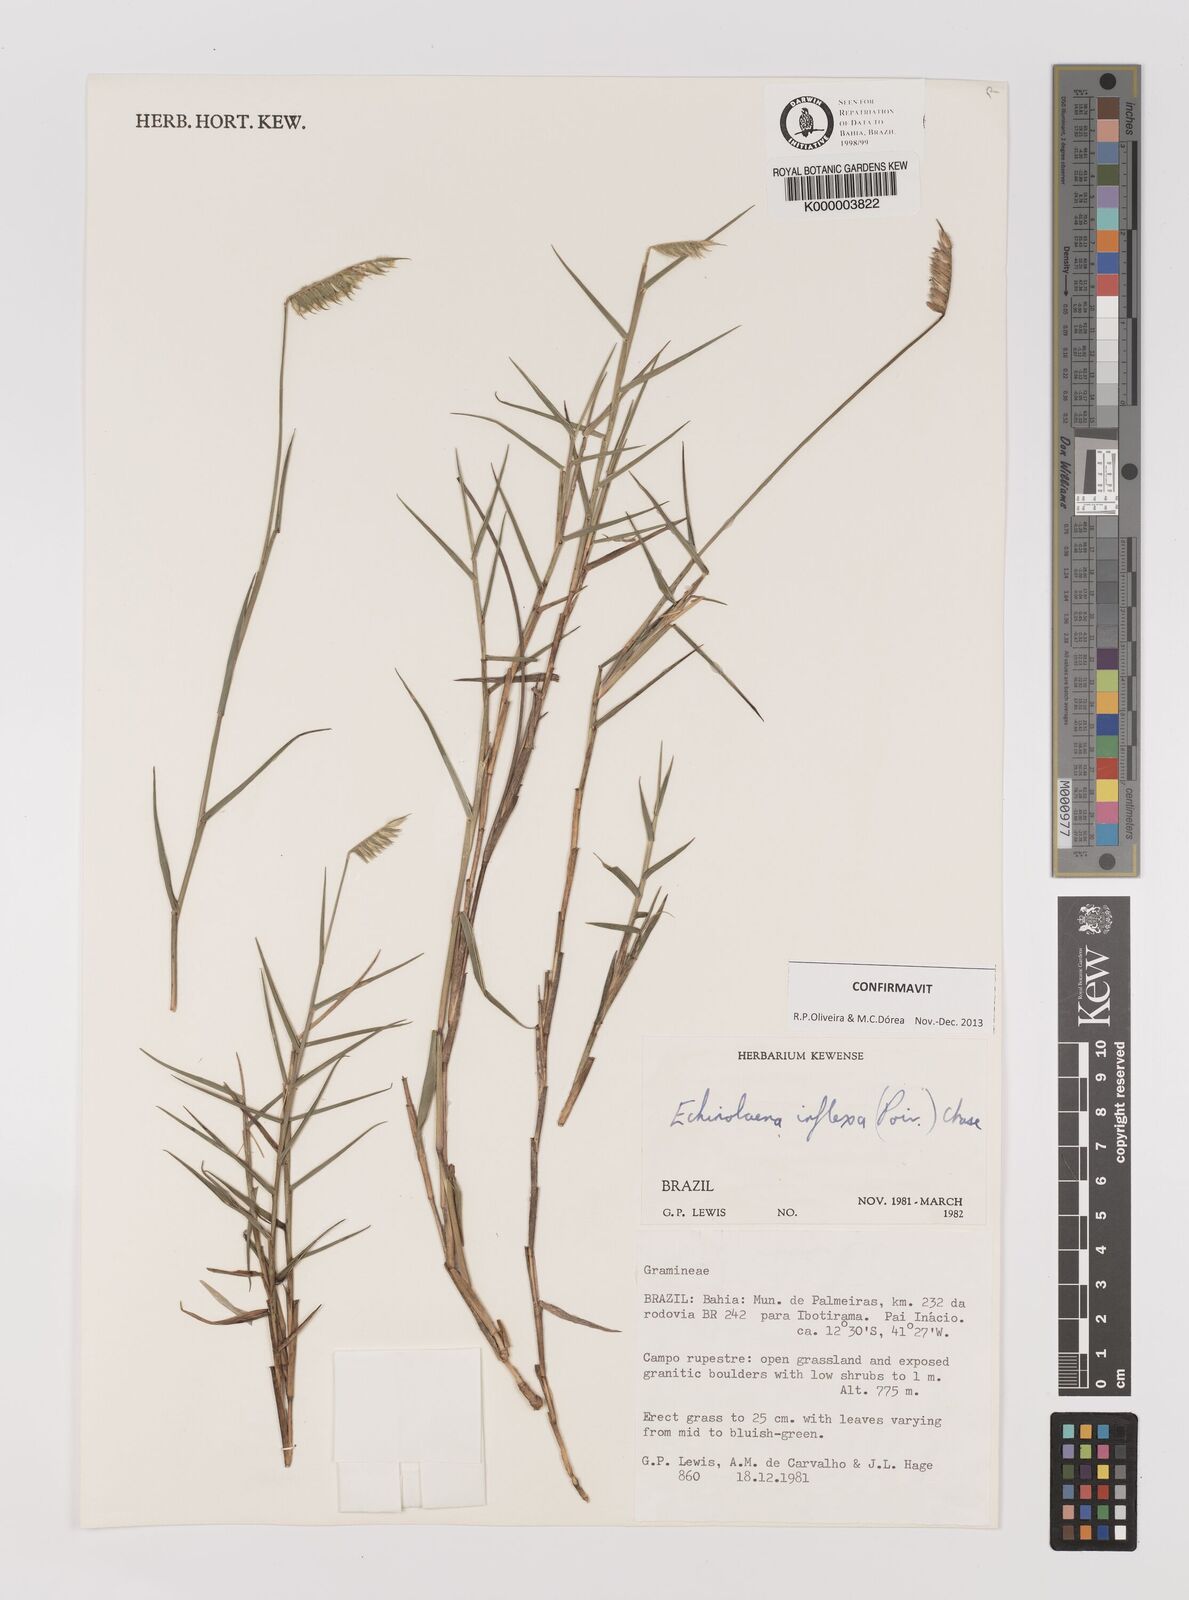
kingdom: Plantae
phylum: Tracheophyta
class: Liliopsida
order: Poales
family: Poaceae
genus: Echinolaena
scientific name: Echinolaena inflexa
